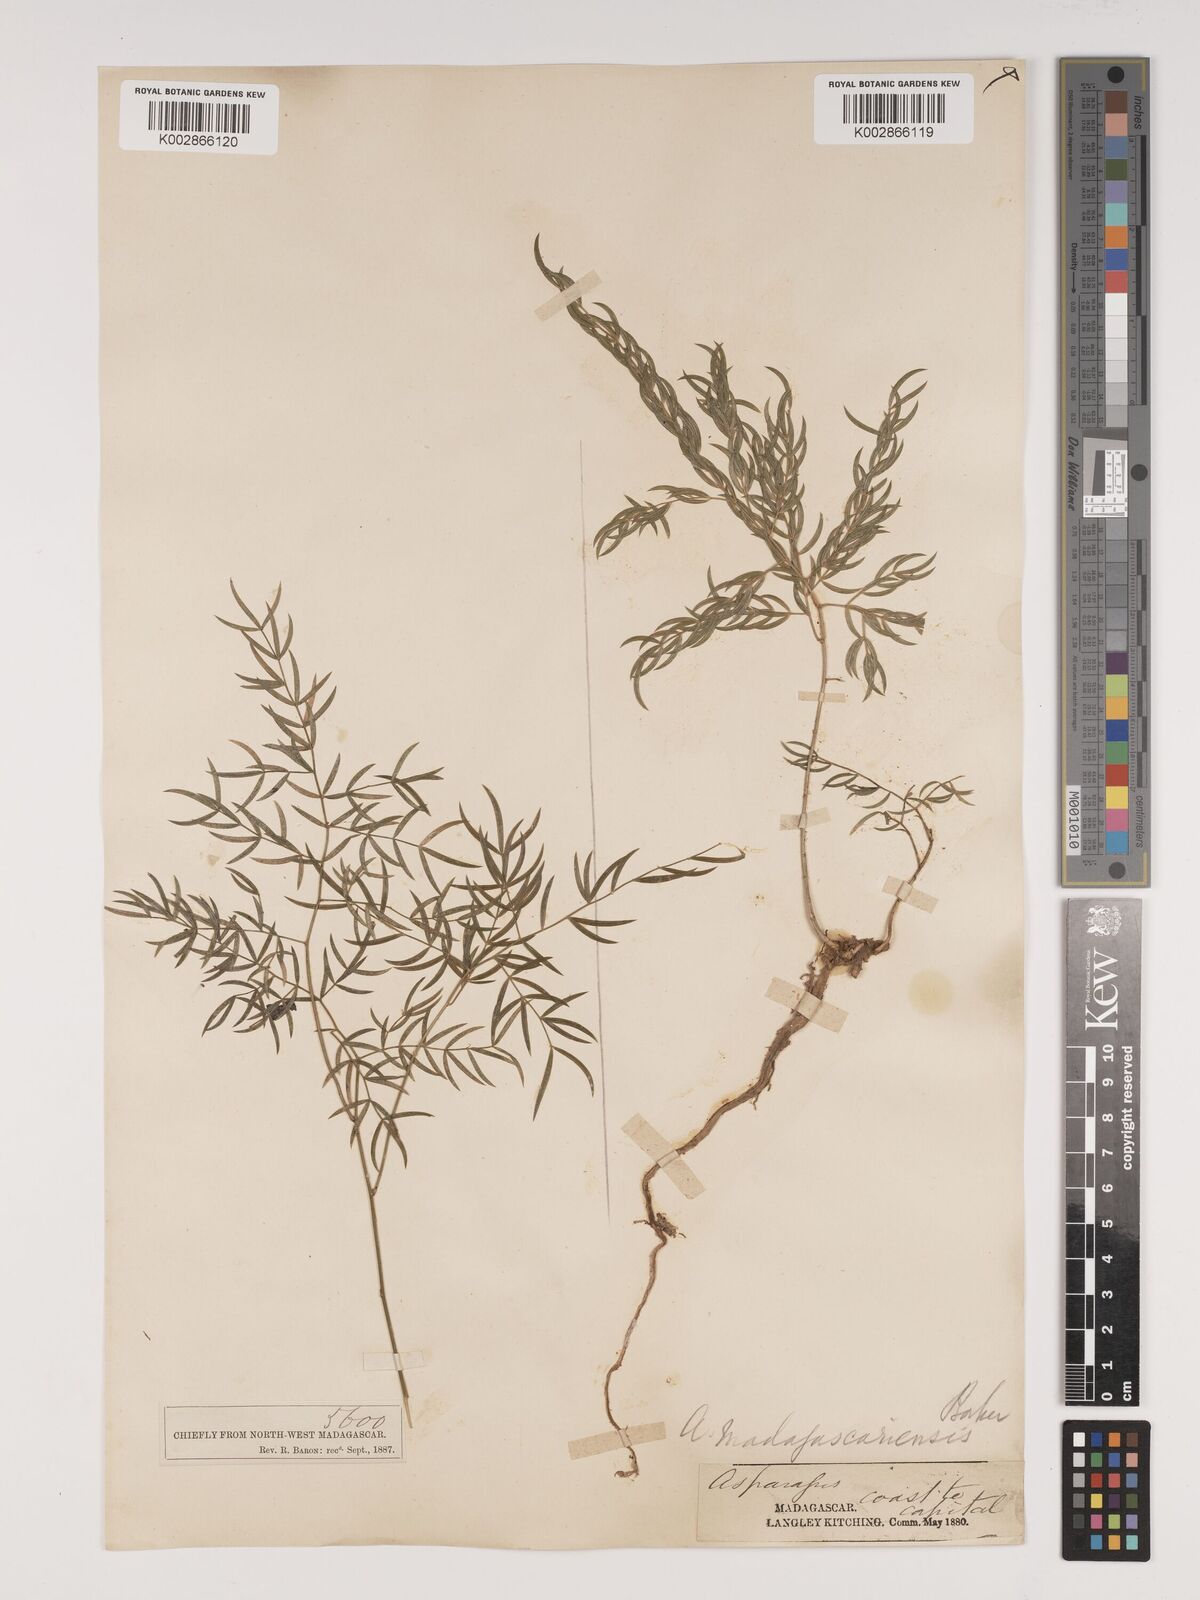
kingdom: Plantae
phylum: Tracheophyta
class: Liliopsida
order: Asparagales
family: Asparagaceae
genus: Asparagus
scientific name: Asparagus simulans
